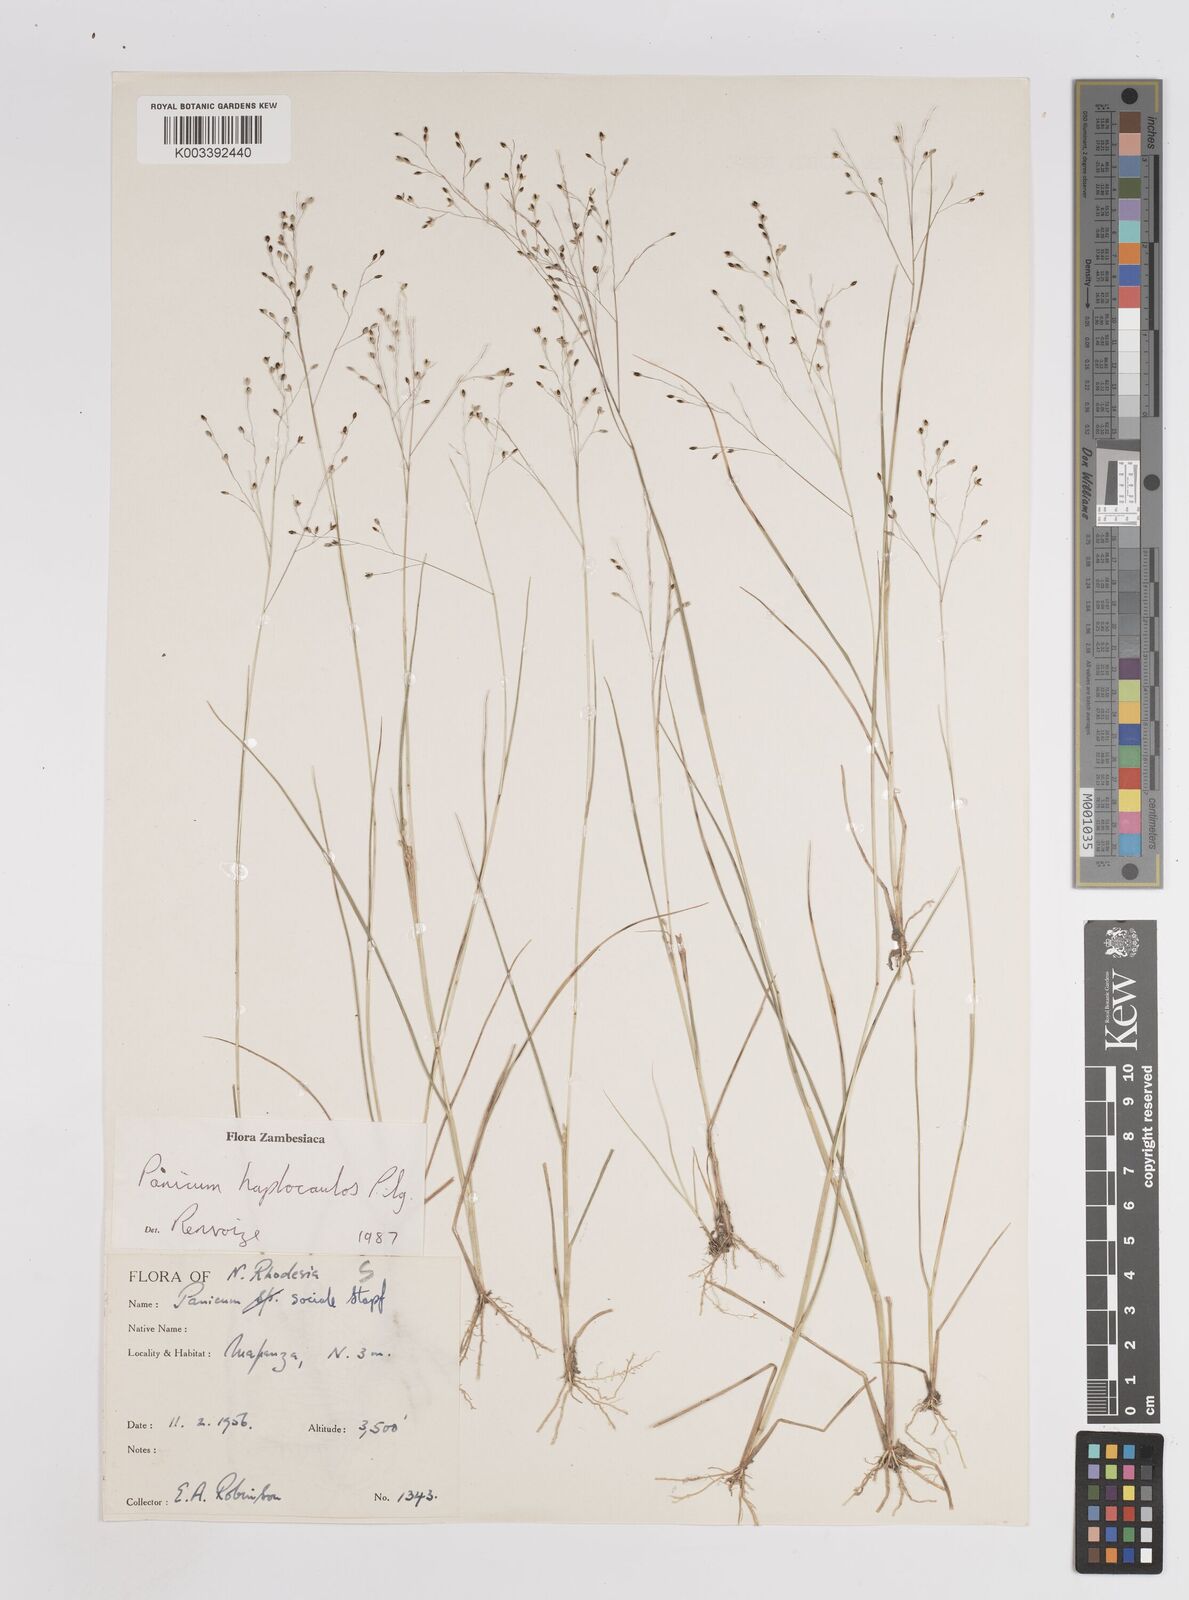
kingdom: Plantae
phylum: Tracheophyta
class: Liliopsida
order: Poales
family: Poaceae
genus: Panicum
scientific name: Panicum haplocaulos
